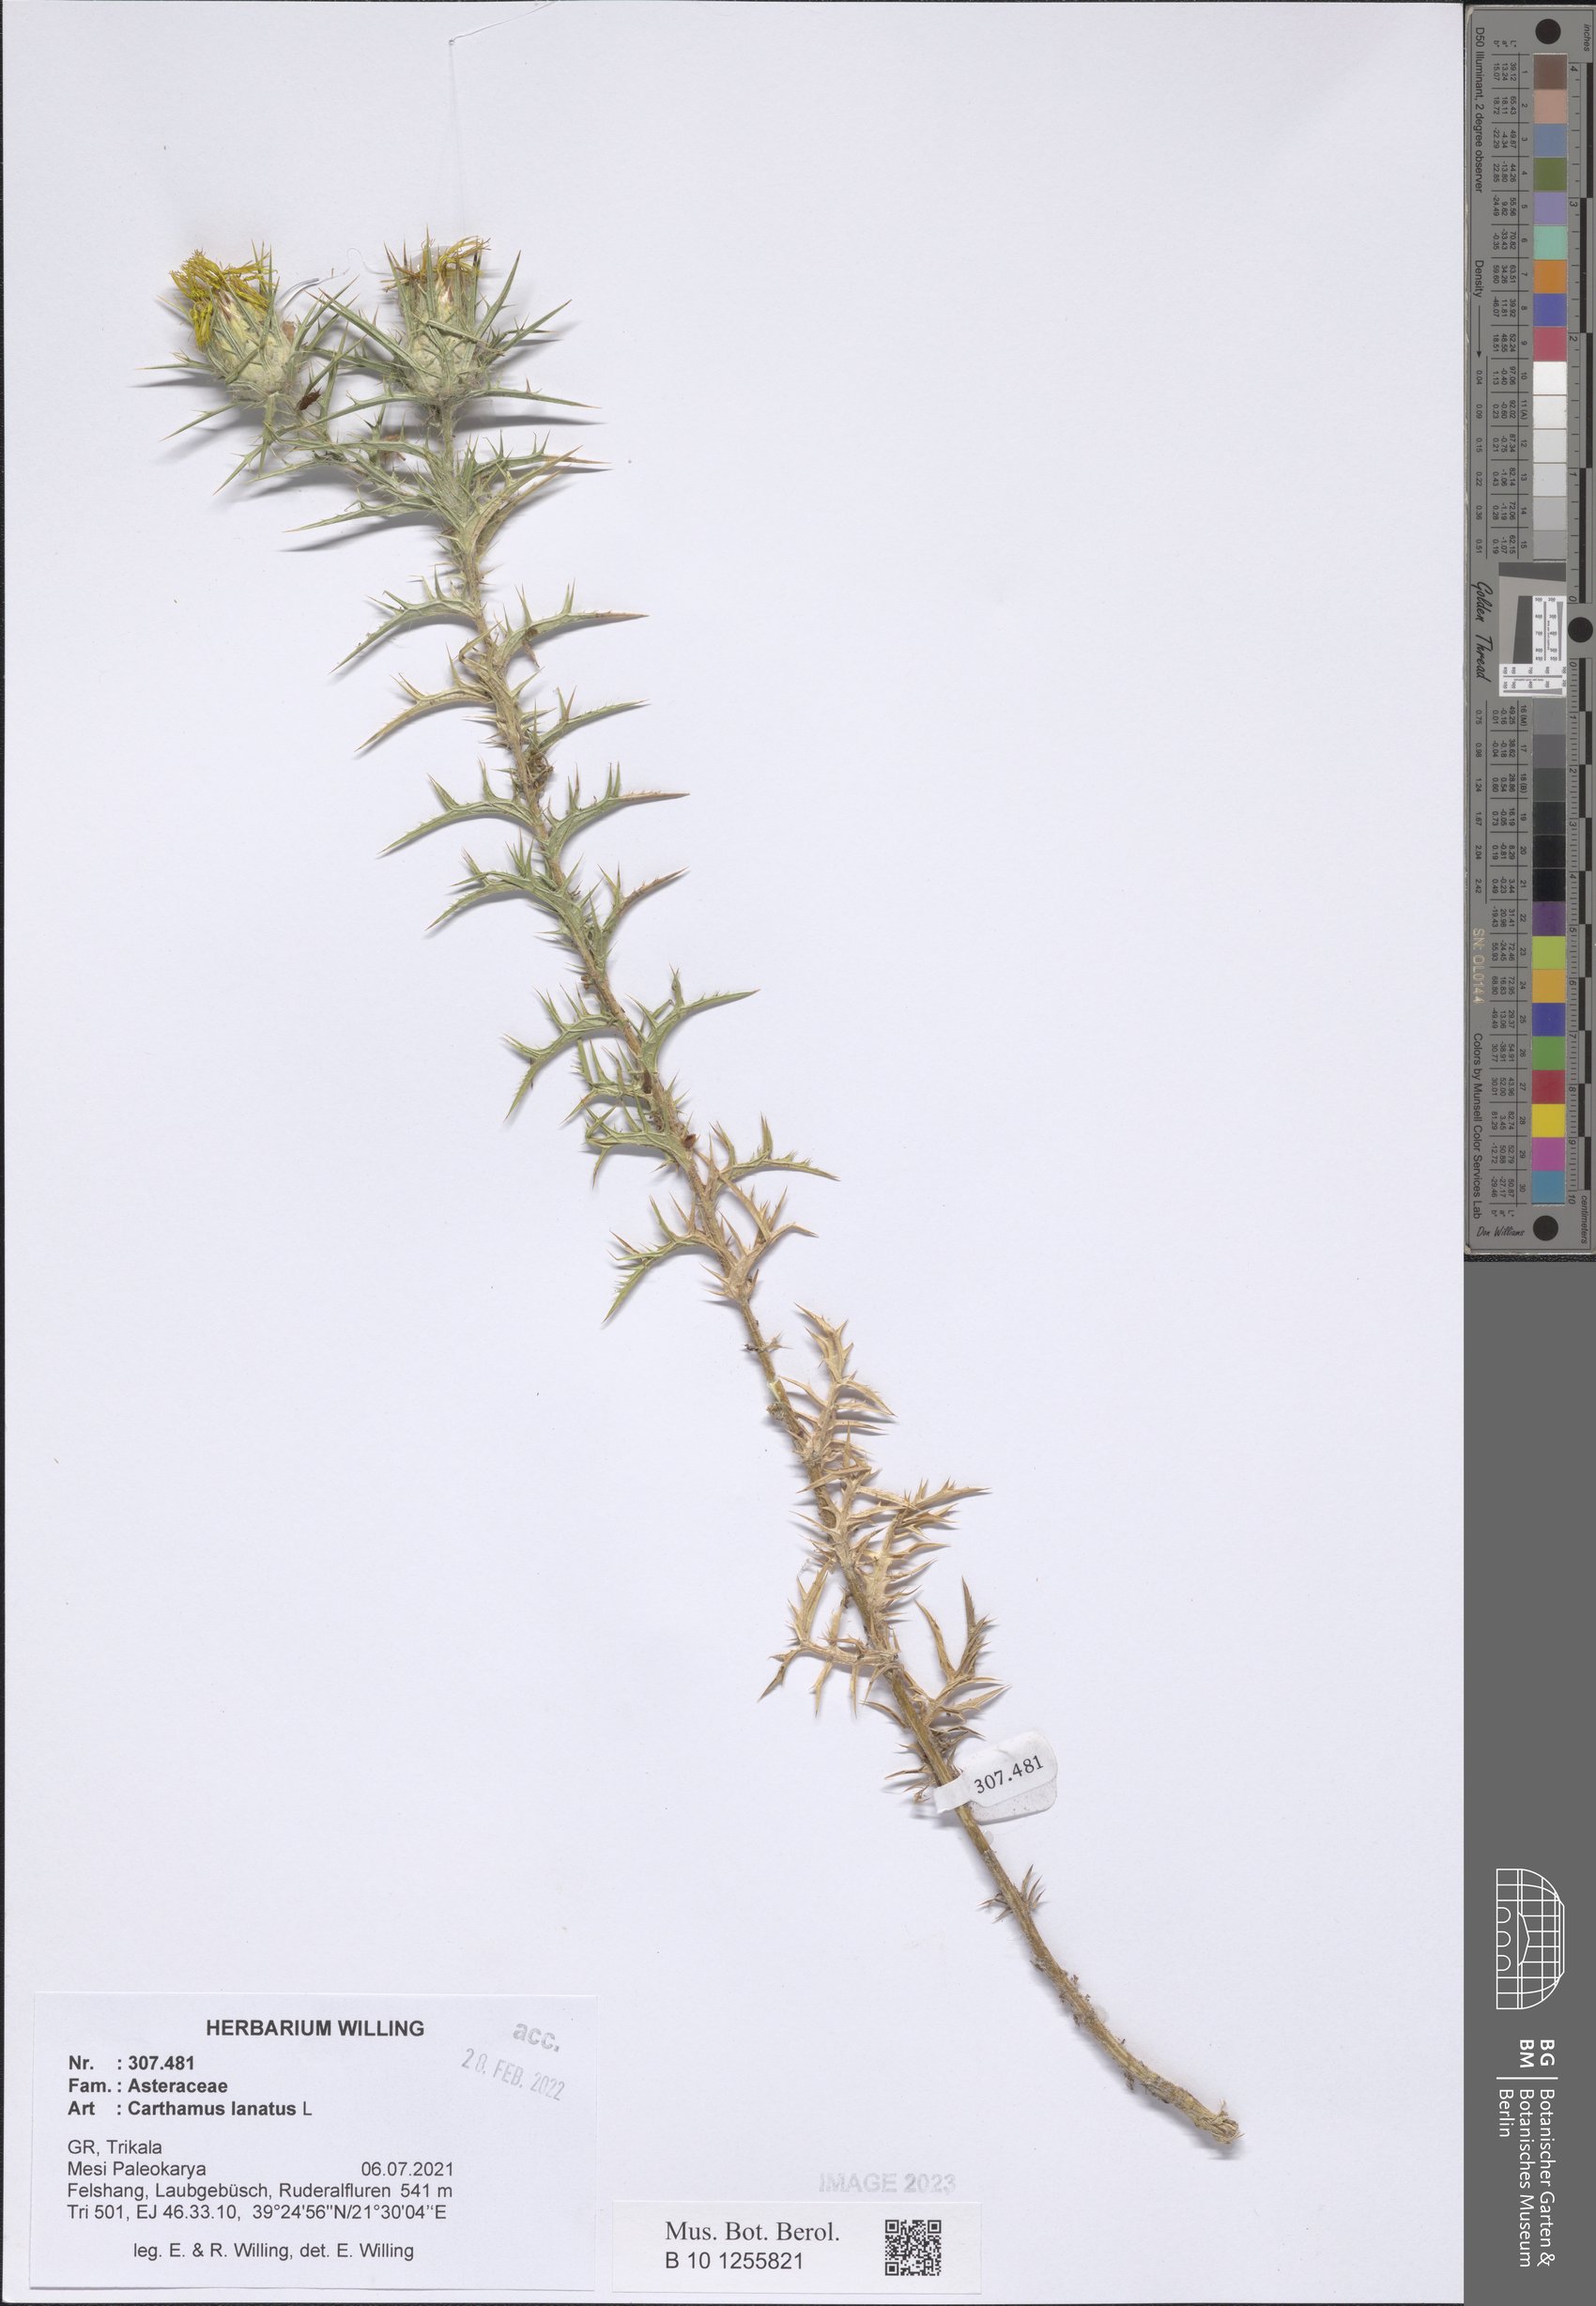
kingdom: Plantae
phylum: Tracheophyta
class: Magnoliopsida
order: Asterales
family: Asteraceae
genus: Carthamus
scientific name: Carthamus lanatus
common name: Downy safflower
